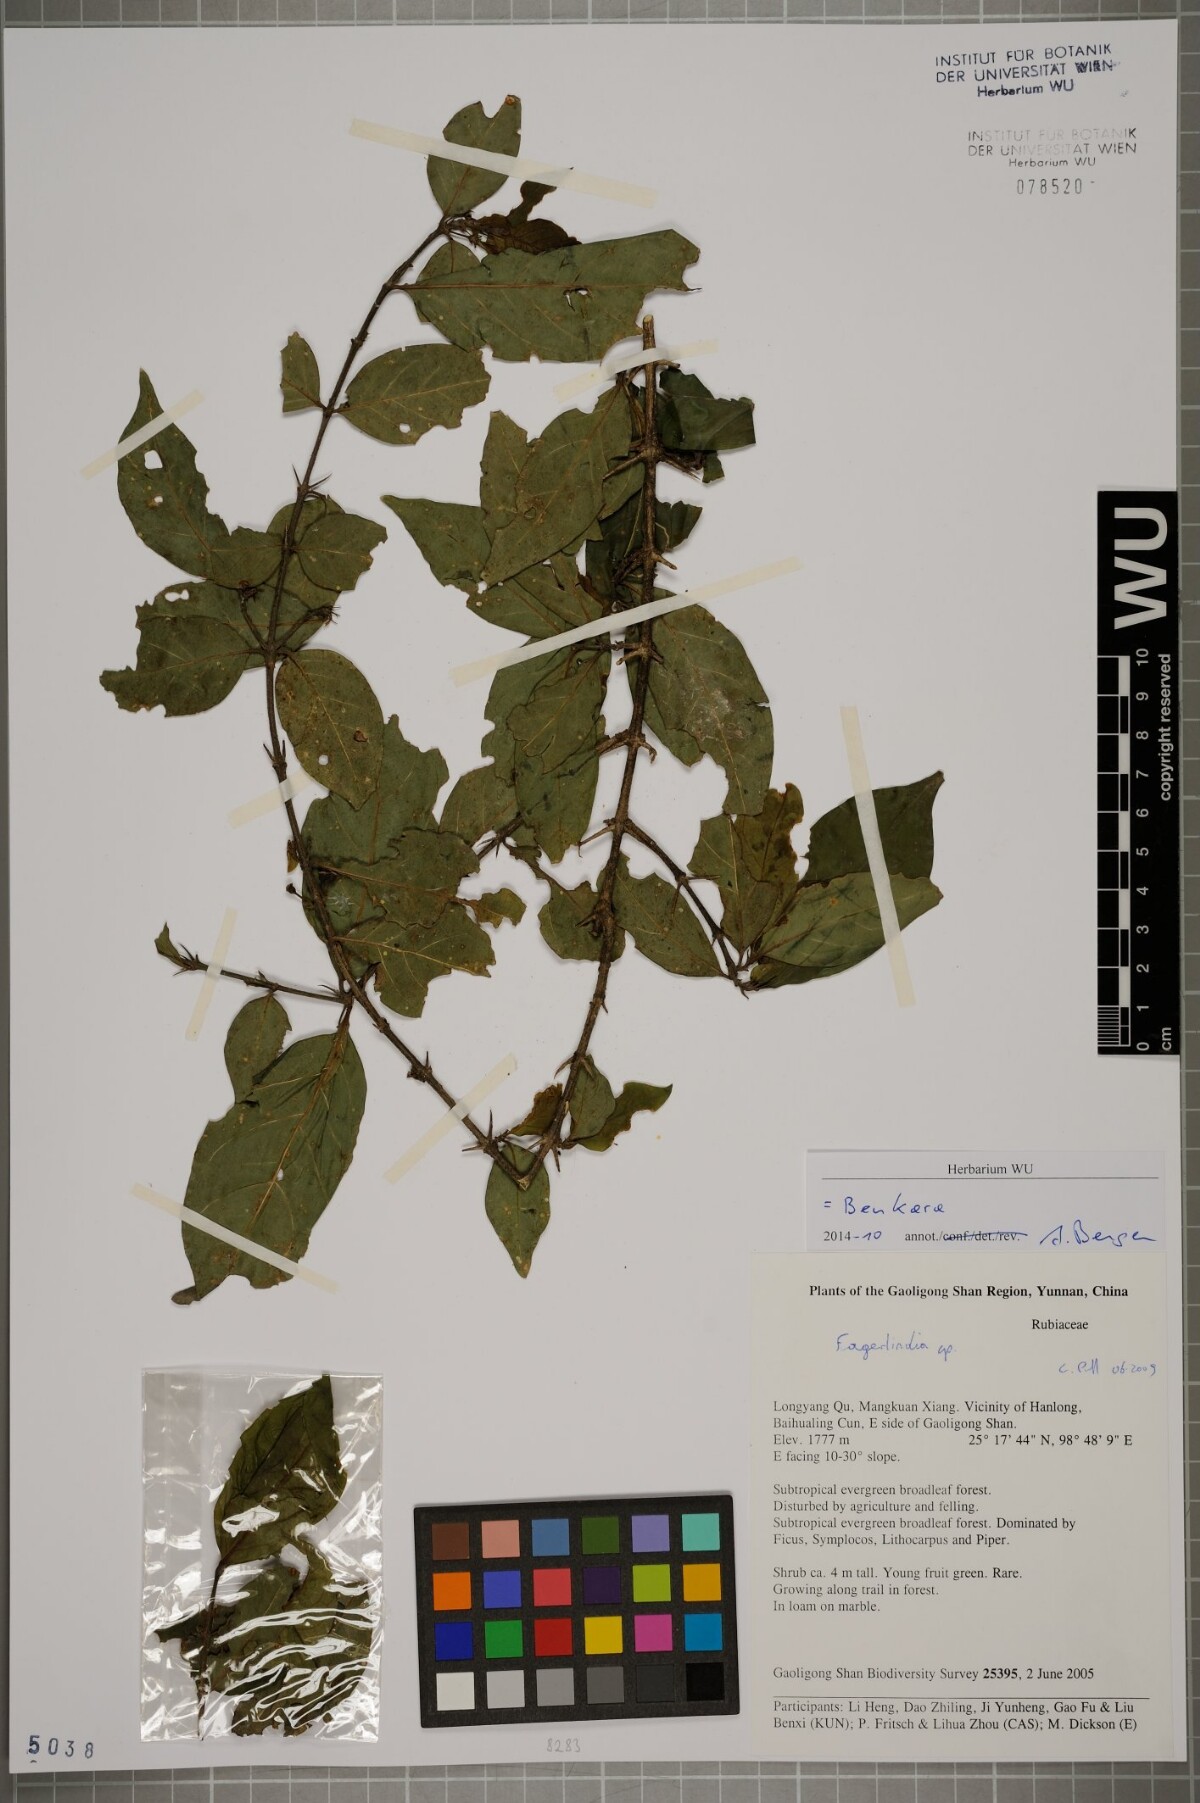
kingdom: Plantae
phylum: Tracheophyta
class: Magnoliopsida
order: Gentianales
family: Rubiaceae
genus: Benkara
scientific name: Benkara
